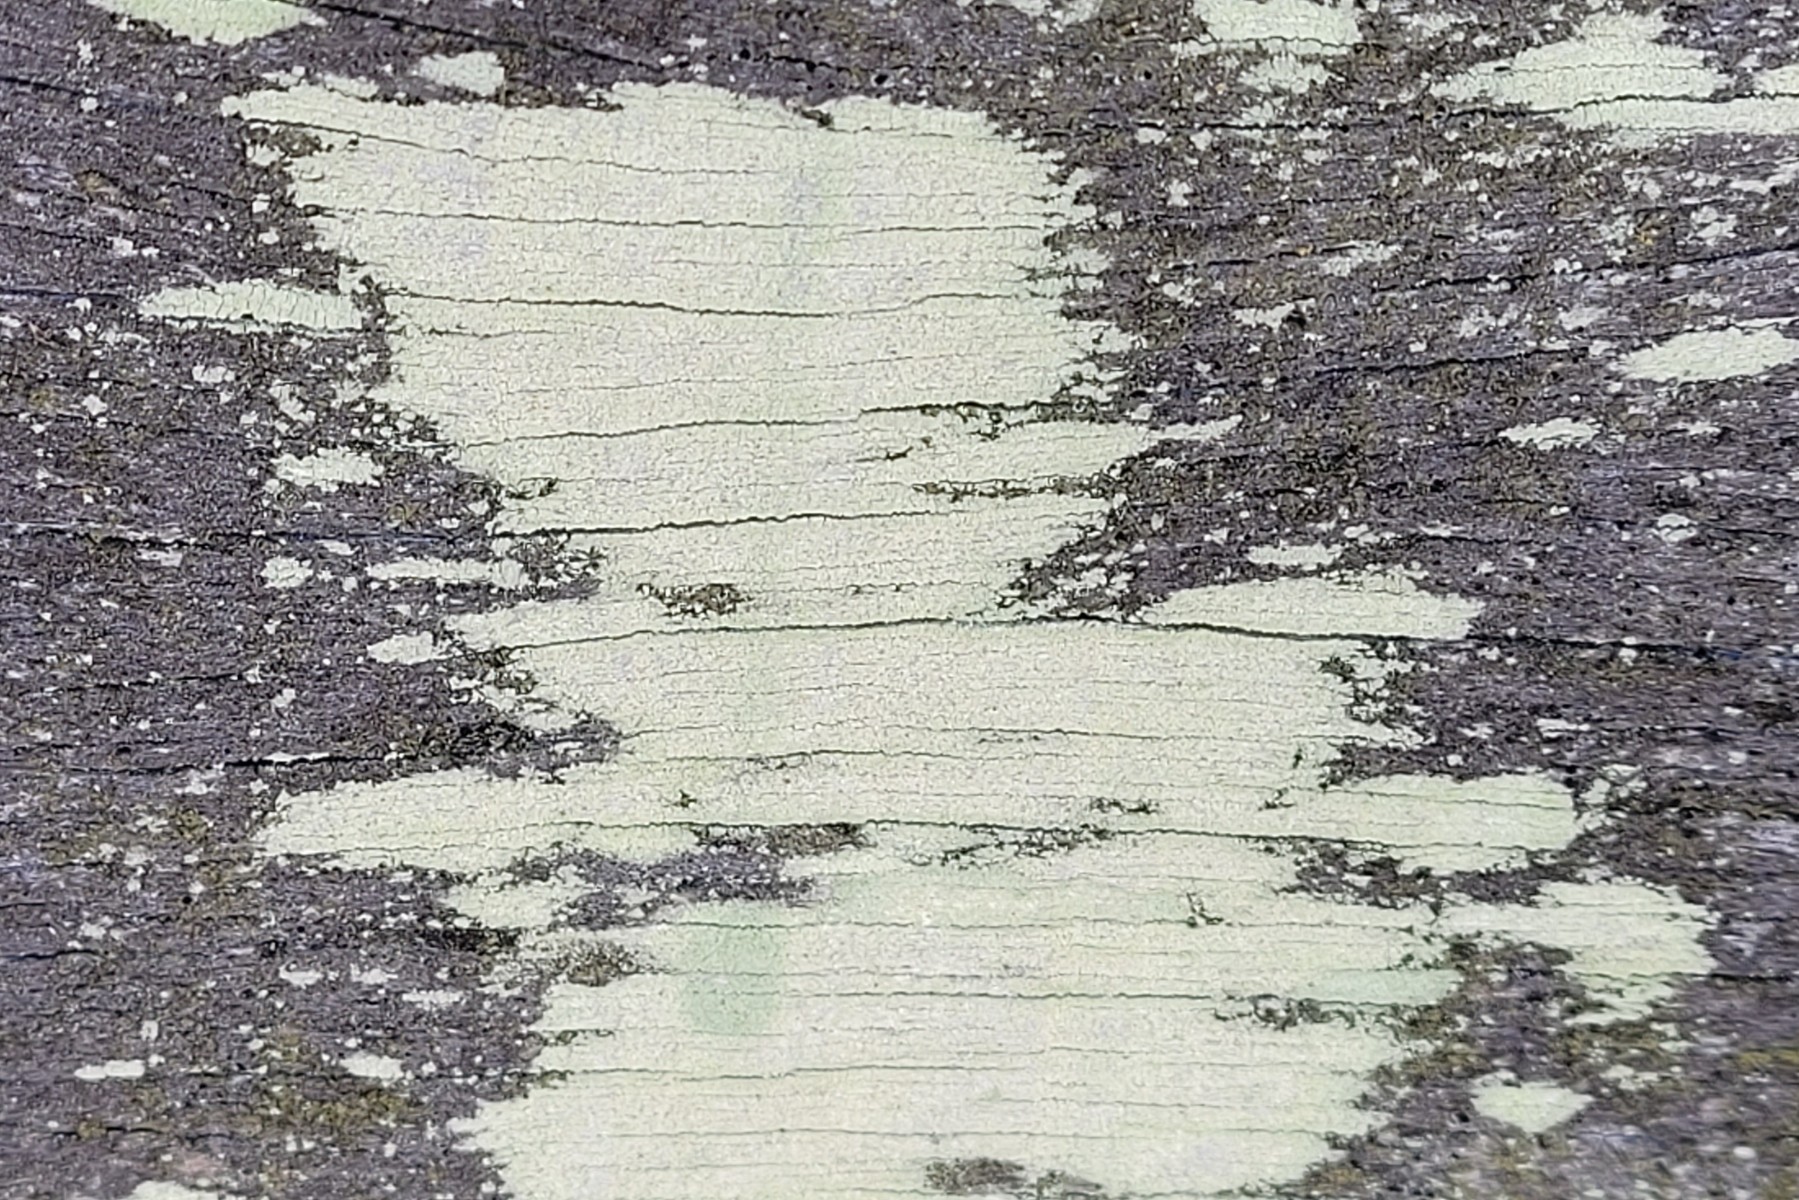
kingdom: Fungi
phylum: Ascomycota
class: Lecanoromycetes
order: Lecanorales
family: Lecanoraceae
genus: Lecanora
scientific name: Lecanora expallens
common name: bleggul kantskivelav
